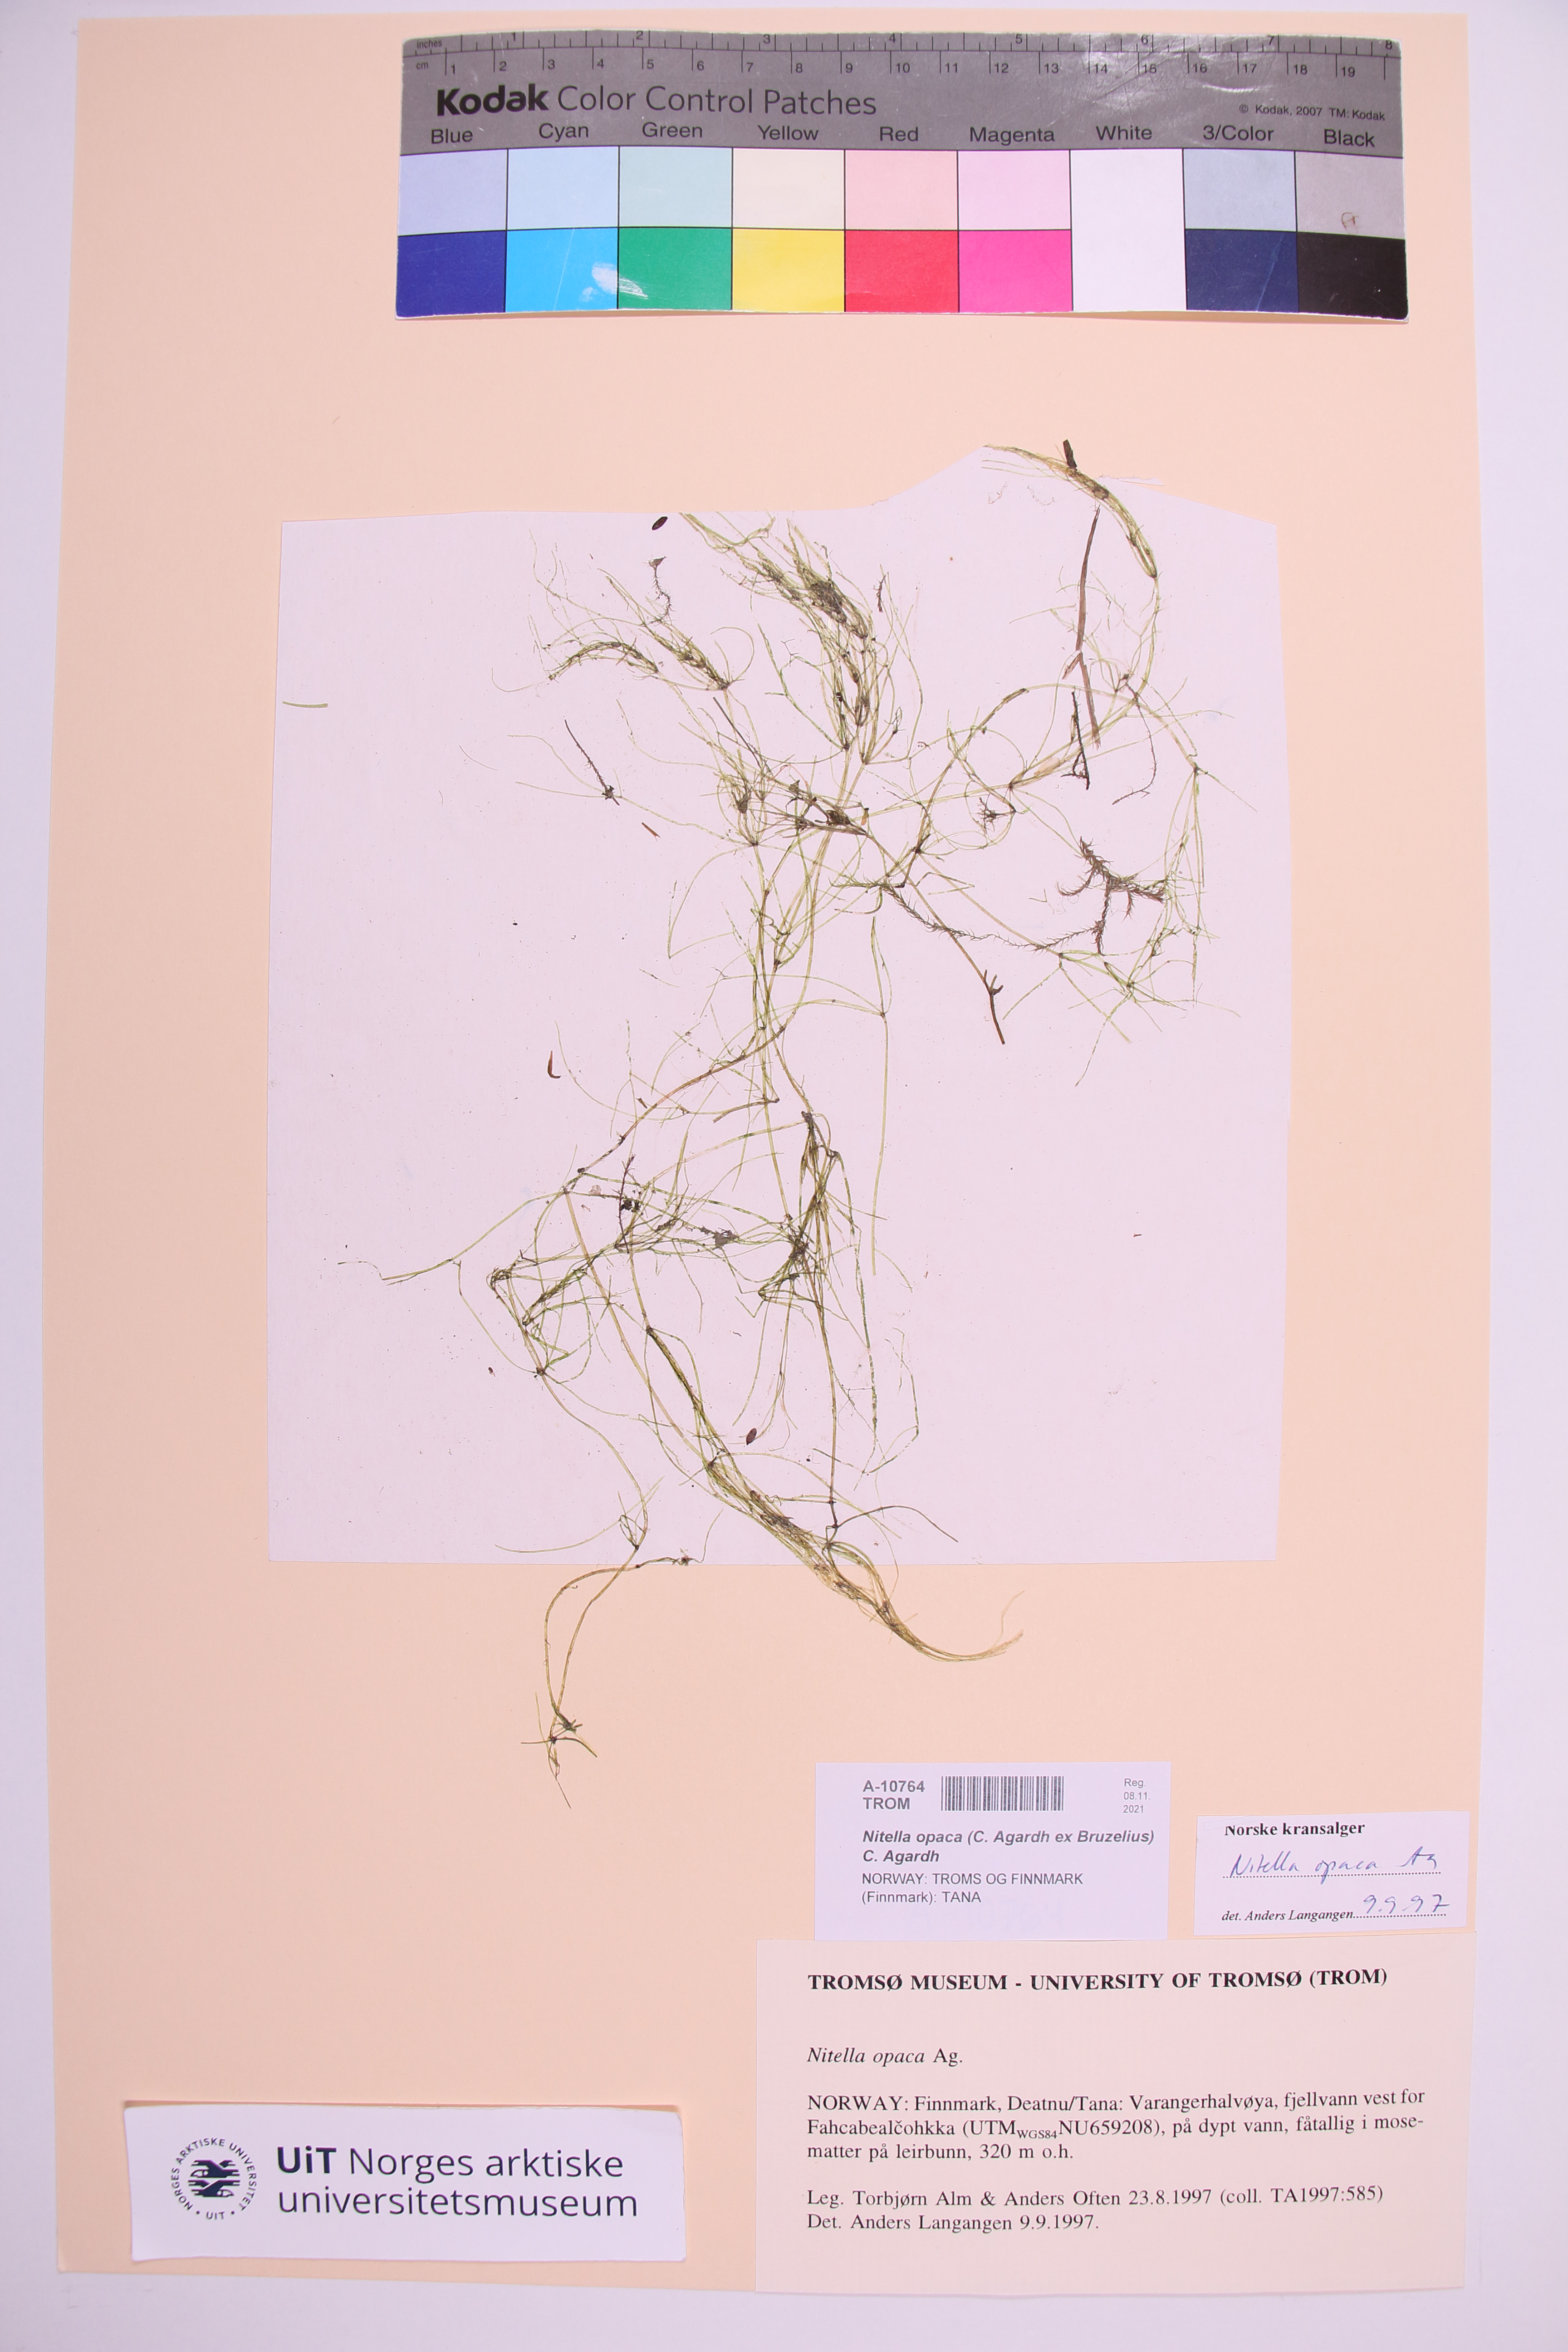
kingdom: Plantae
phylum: Charophyta
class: Charophyceae
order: Charales
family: Characeae
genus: Nitella
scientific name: Nitella opaca
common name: Dark stonewort
